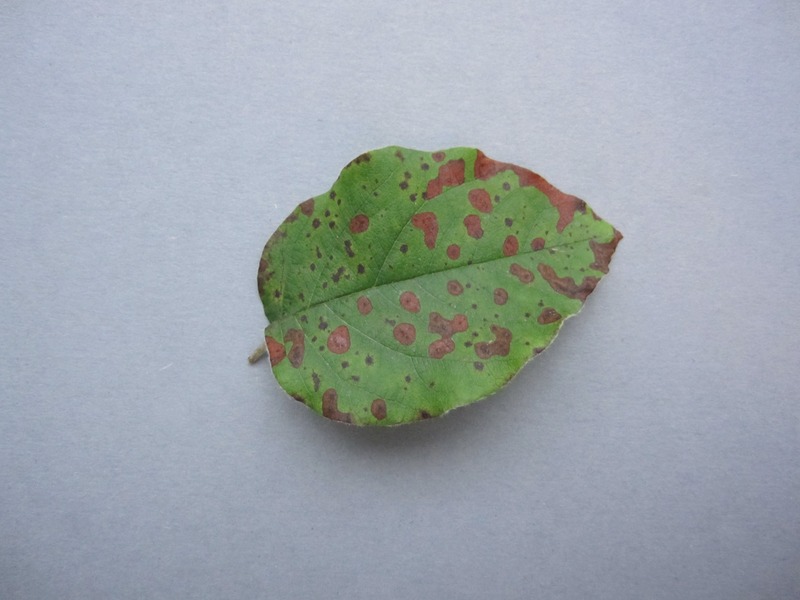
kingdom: Fungi
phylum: Ascomycota
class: Leotiomycetes
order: Helotiales
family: Drepanopezizaceae
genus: Diplocarpon
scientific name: Diplocarpon mespili
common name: Quince leaf blight
